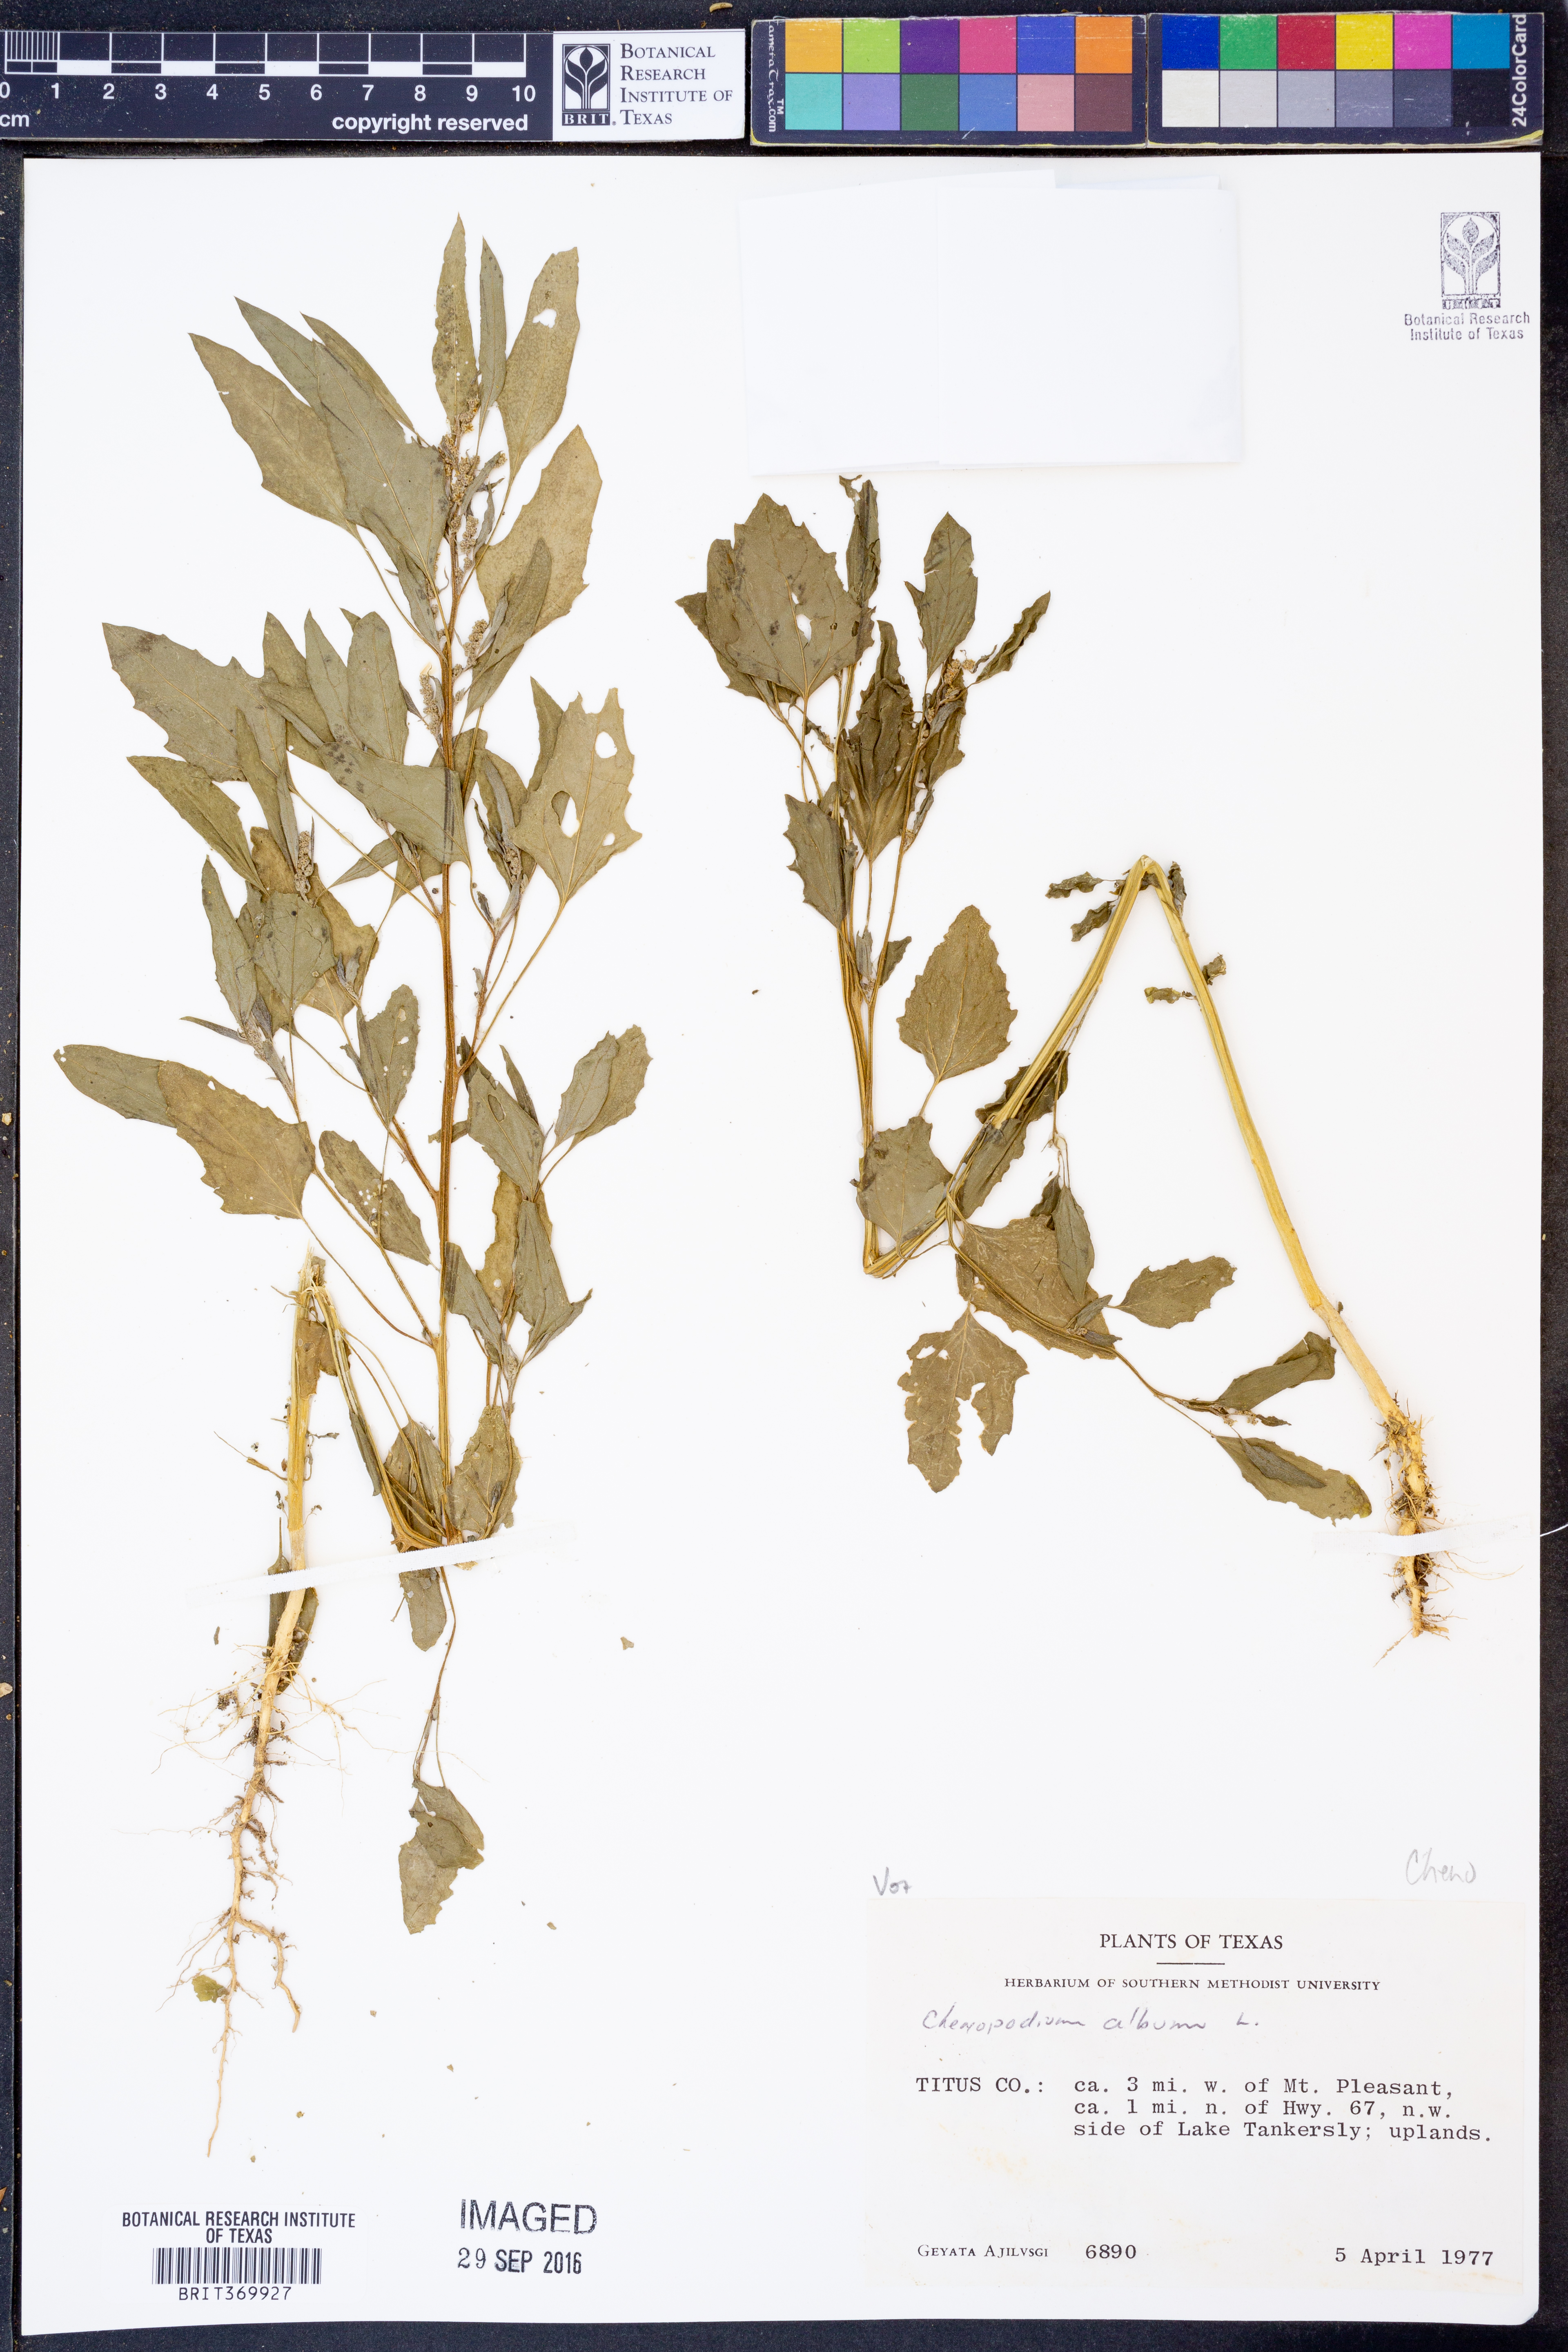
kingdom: Plantae
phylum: Tracheophyta
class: Magnoliopsida
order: Caryophyllales
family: Amaranthaceae
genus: Chenopodium
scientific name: Chenopodium album
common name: Fat-hen
